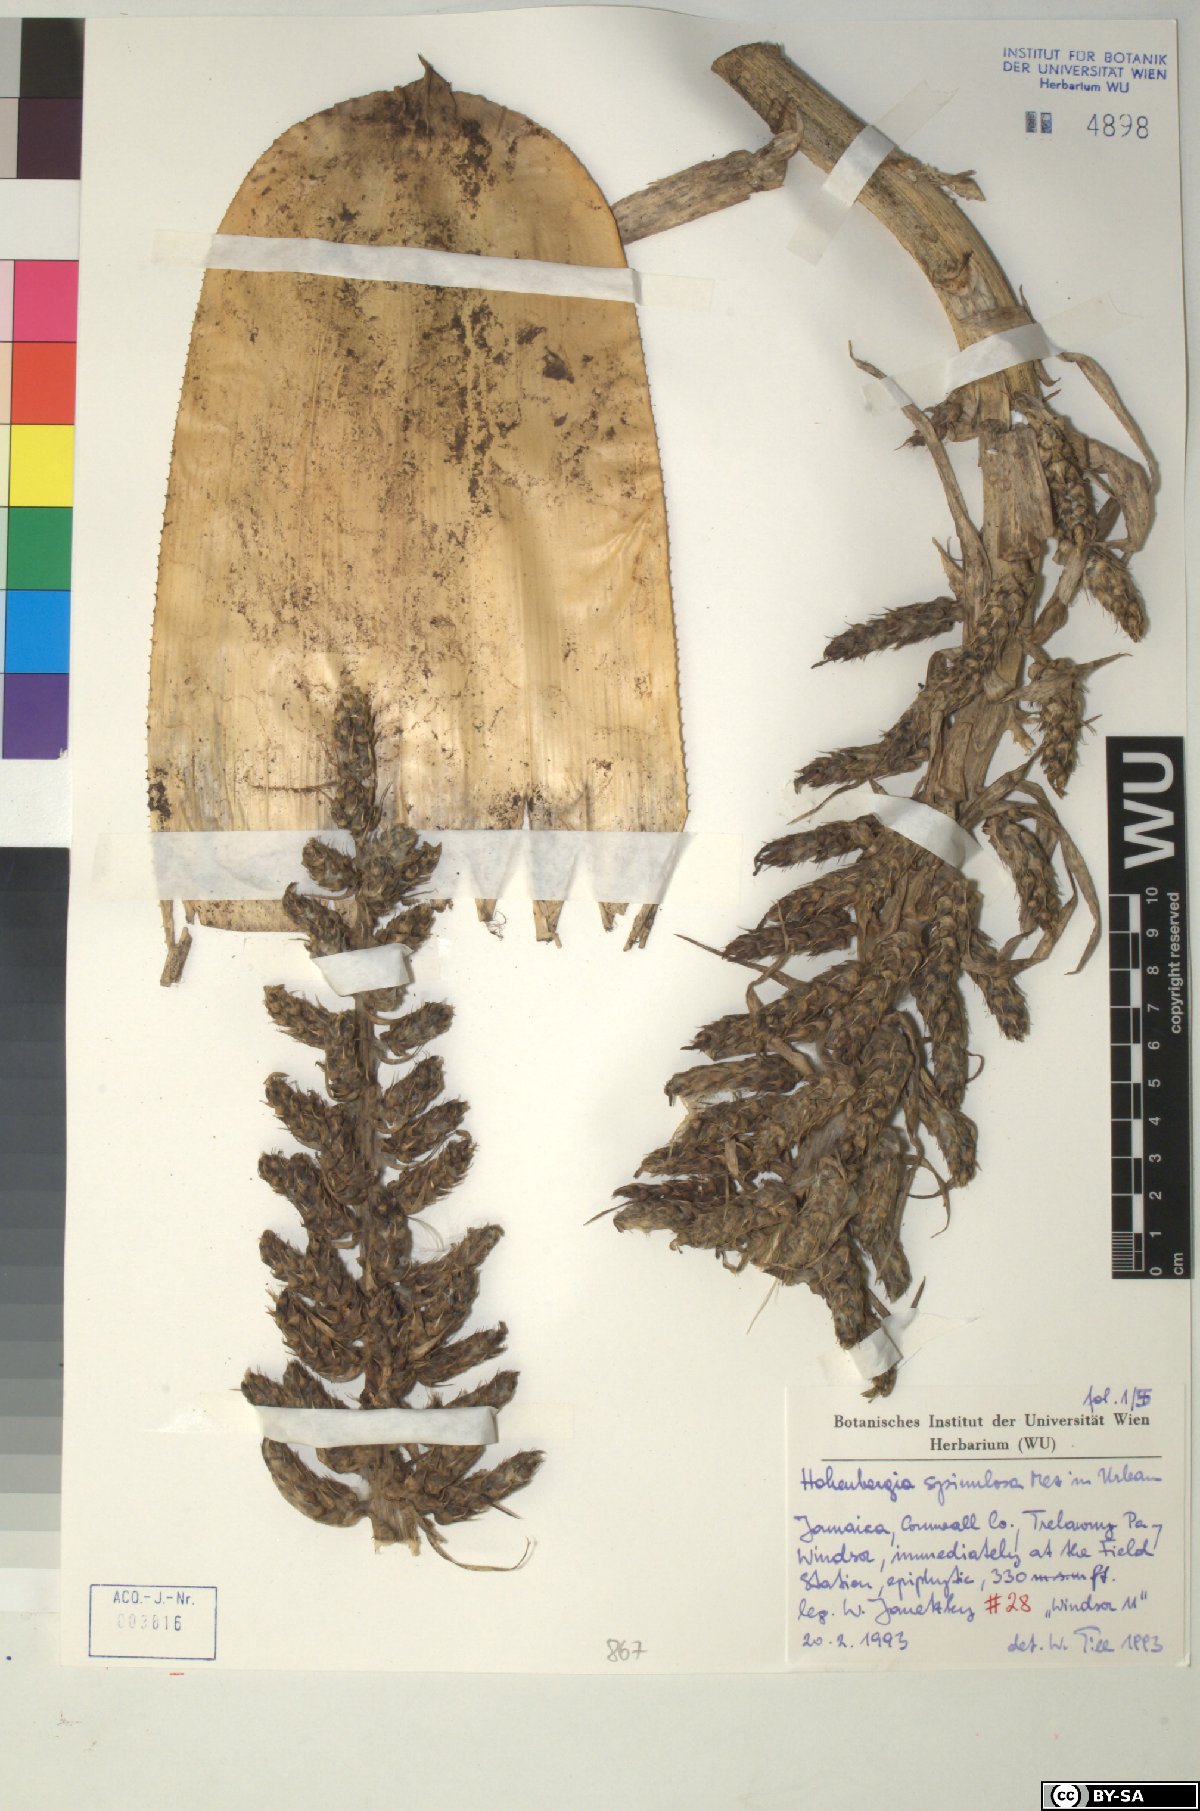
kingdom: Plantae
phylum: Tracheophyta
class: Liliopsida
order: Poales
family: Bromeliaceae
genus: Wittmackia
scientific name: Wittmackia spinulosa
